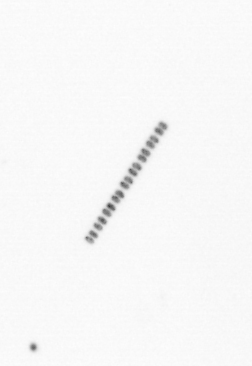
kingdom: Chromista
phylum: Ochrophyta
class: Bacillariophyceae
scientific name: Bacillariophyceae
